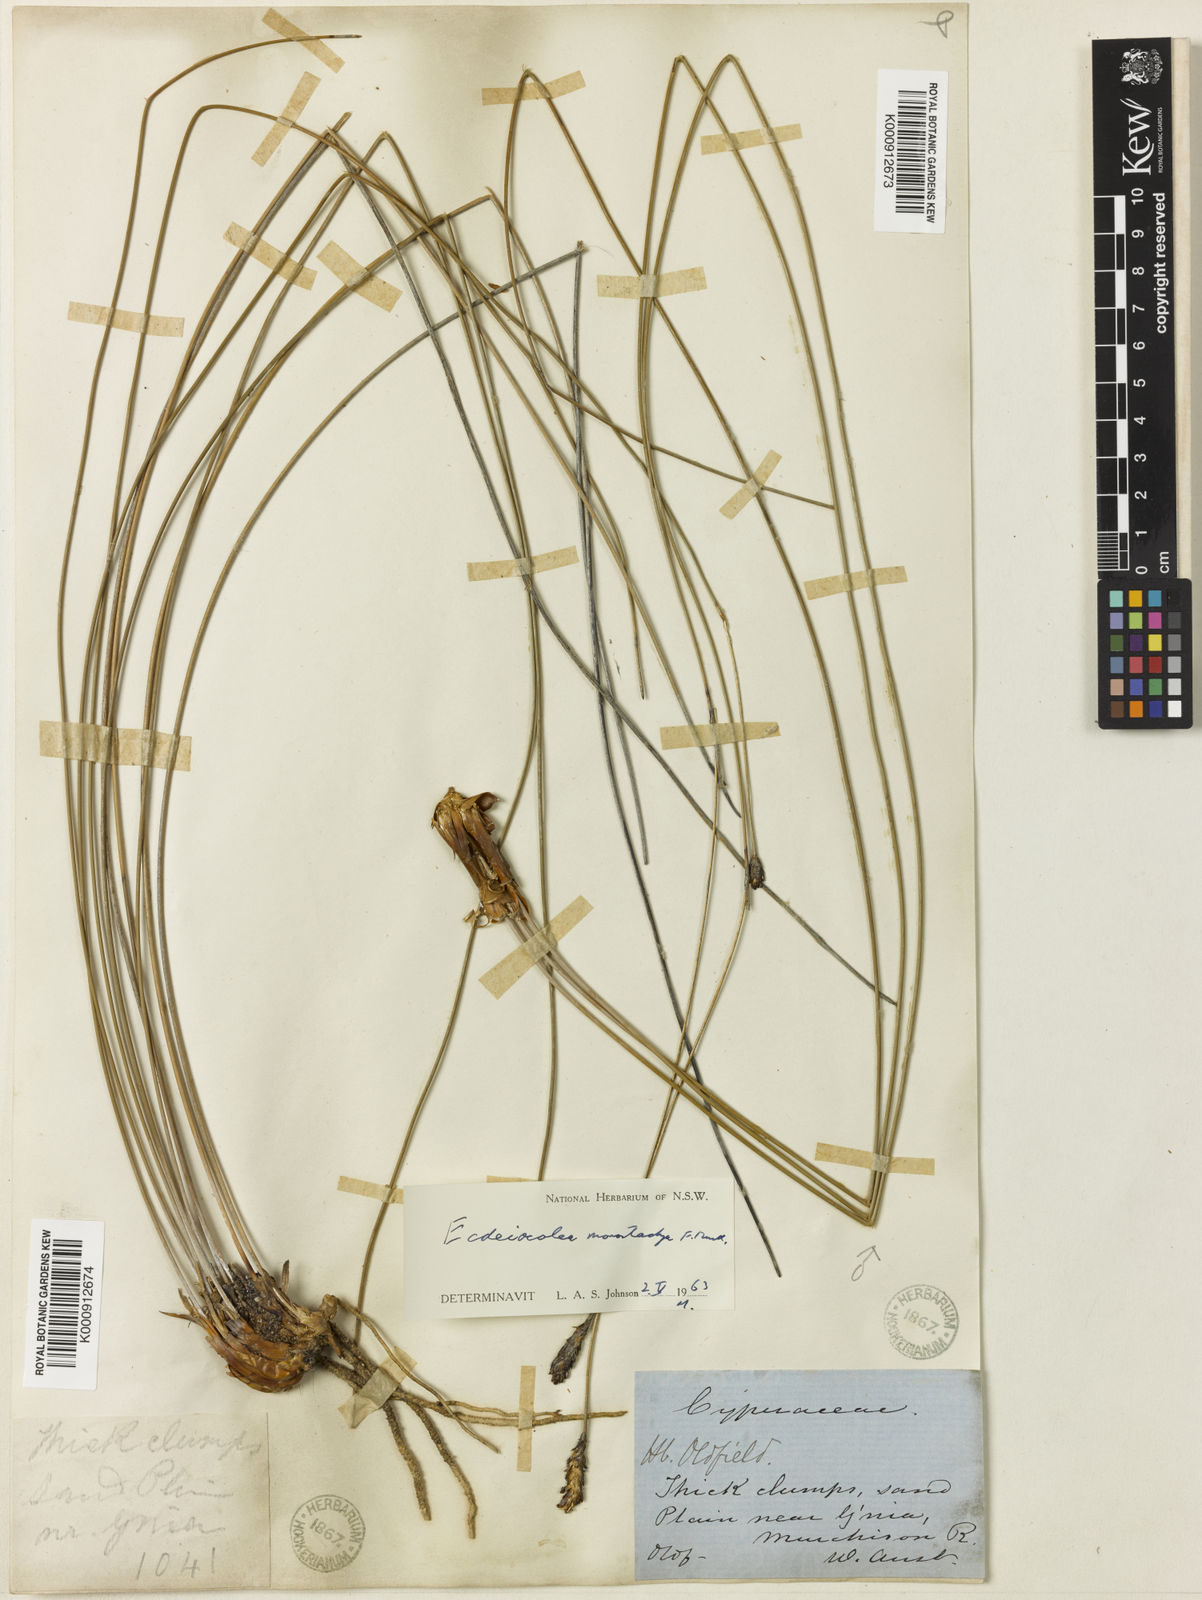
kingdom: Plantae
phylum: Tracheophyta
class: Liliopsida
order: Poales
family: Ecdeiocoleaceae
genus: Ecdeiocolea
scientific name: Ecdeiocolea monostachya
